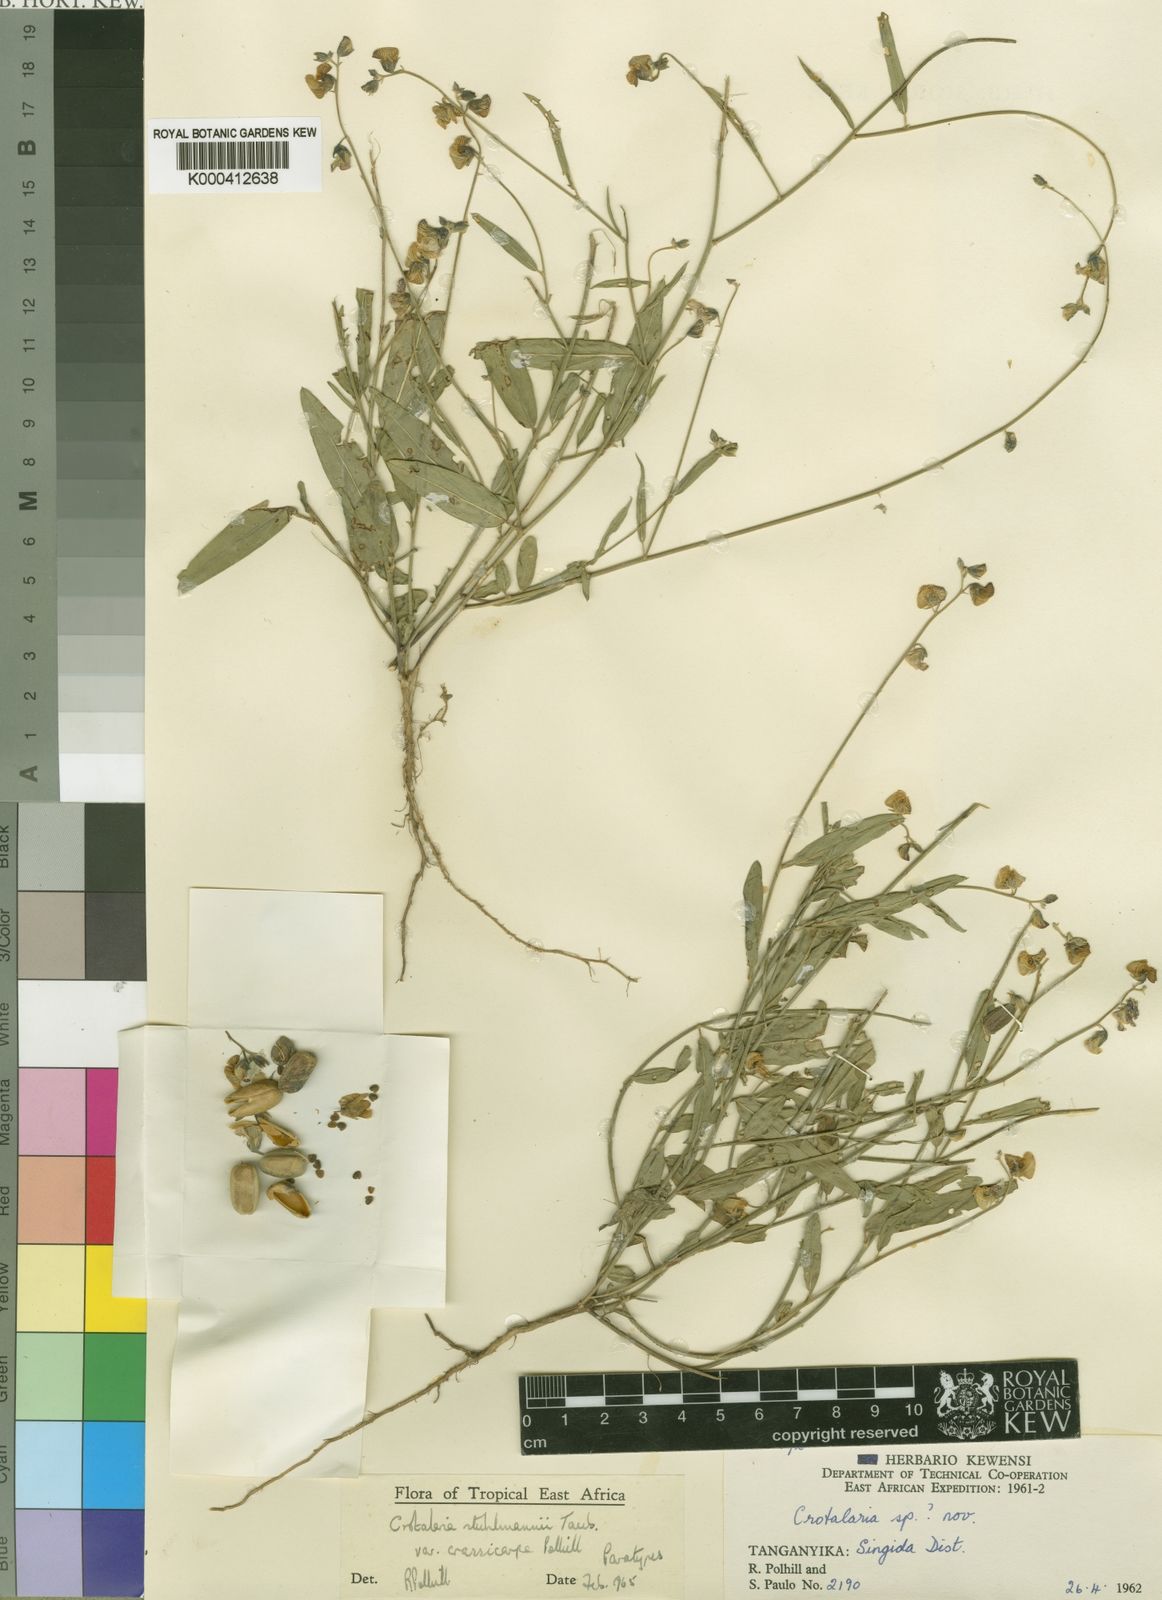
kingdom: Plantae
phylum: Tracheophyta
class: Magnoliopsida
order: Fabales
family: Fabaceae
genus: Crotalaria
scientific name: Crotalaria stuhlmannii
